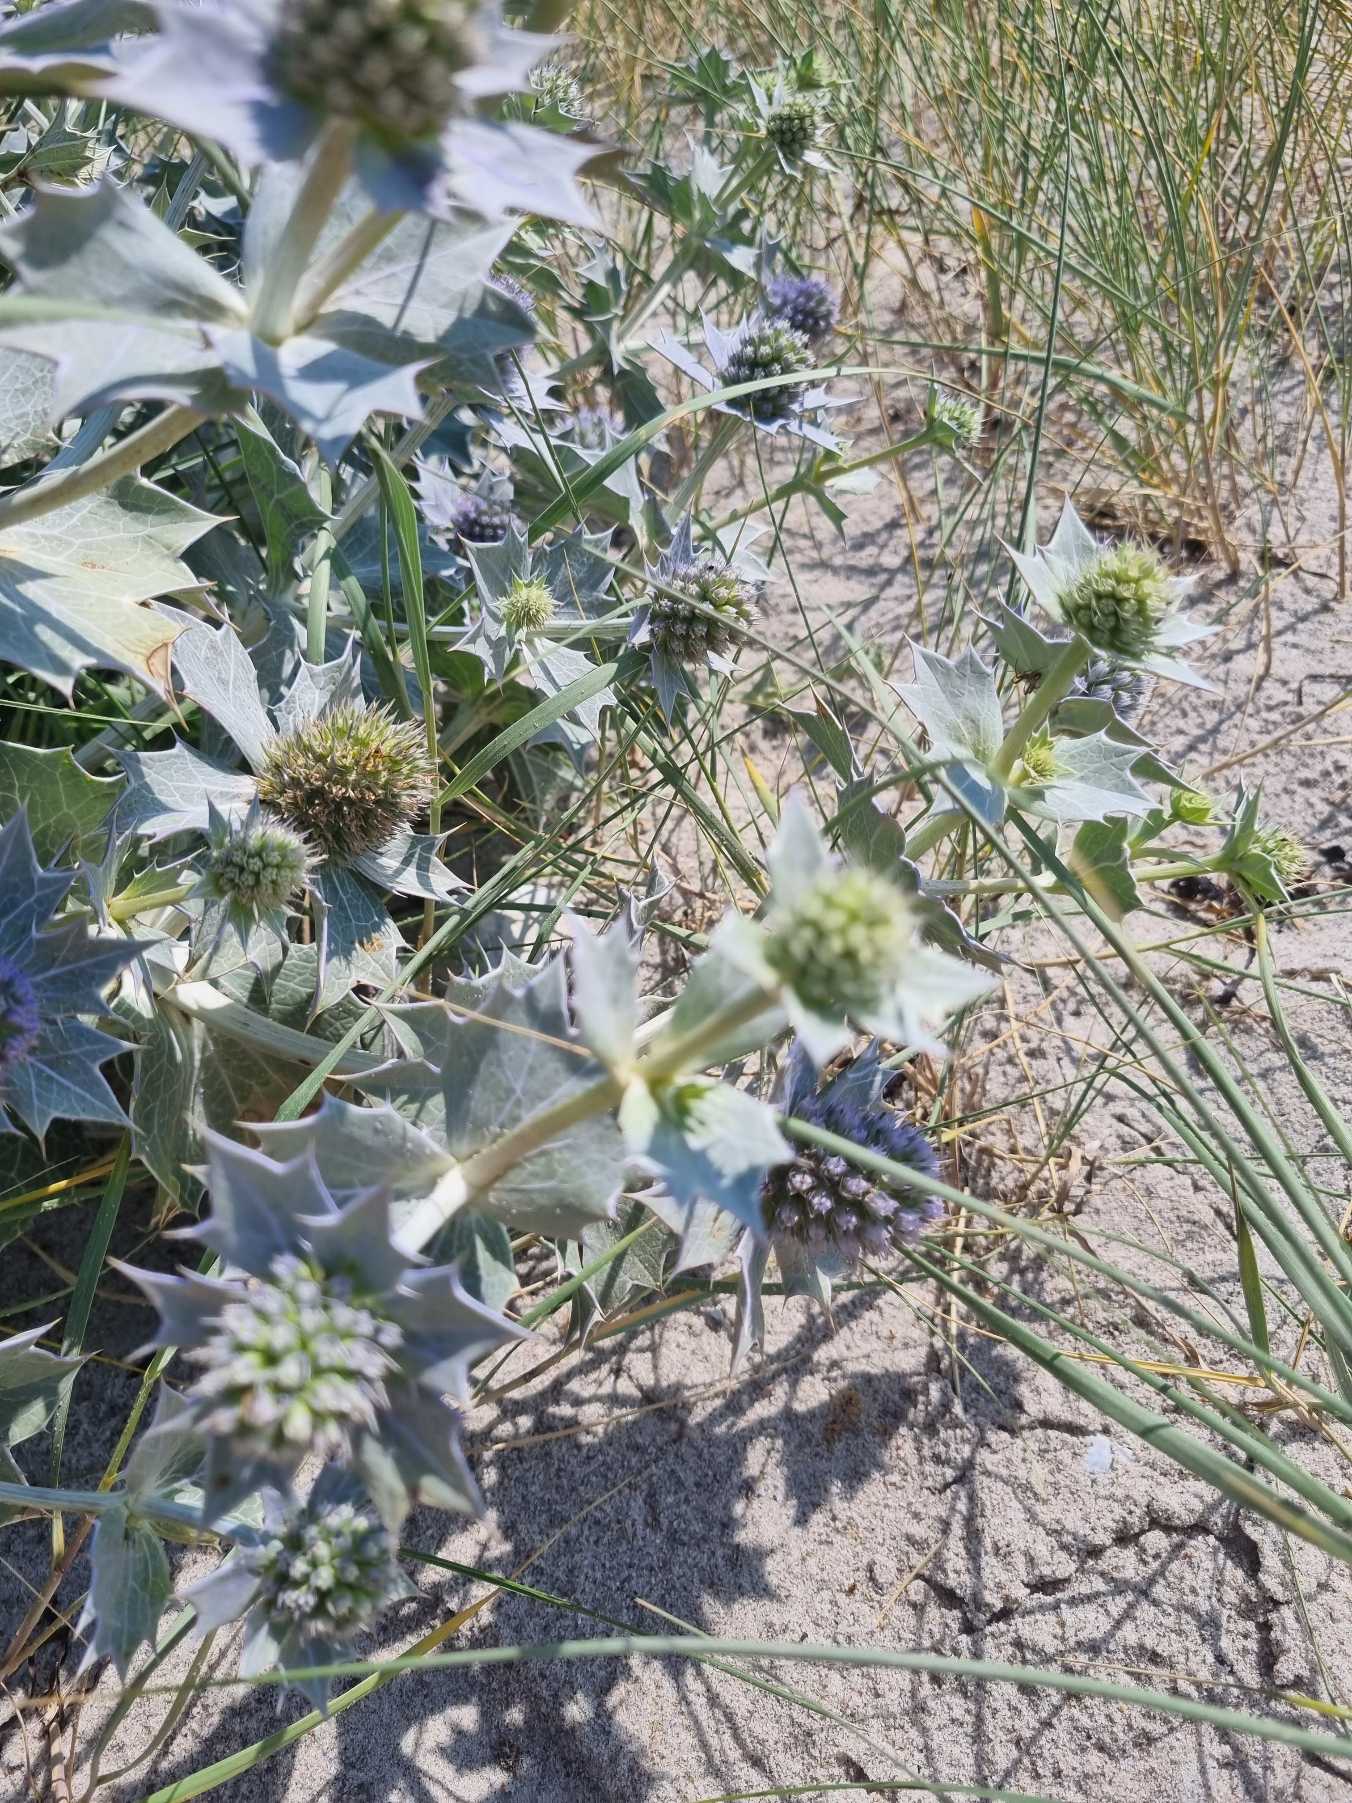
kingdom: Plantae
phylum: Tracheophyta
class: Magnoliopsida
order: Apiales
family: Apiaceae
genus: Eryngium
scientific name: Eryngium maritimum
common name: Strand-mandstro
